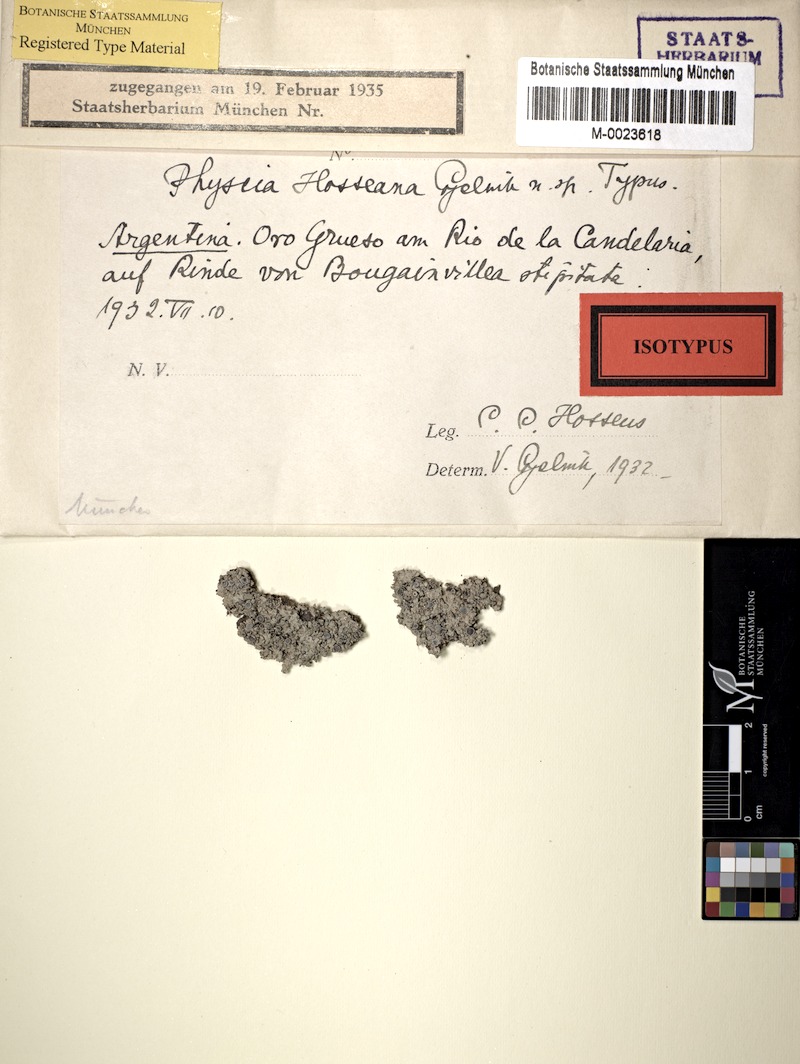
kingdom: Fungi
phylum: Ascomycota
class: Lecanoromycetes
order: Caliciales
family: Physciaceae
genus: Physcia
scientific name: Physcia
